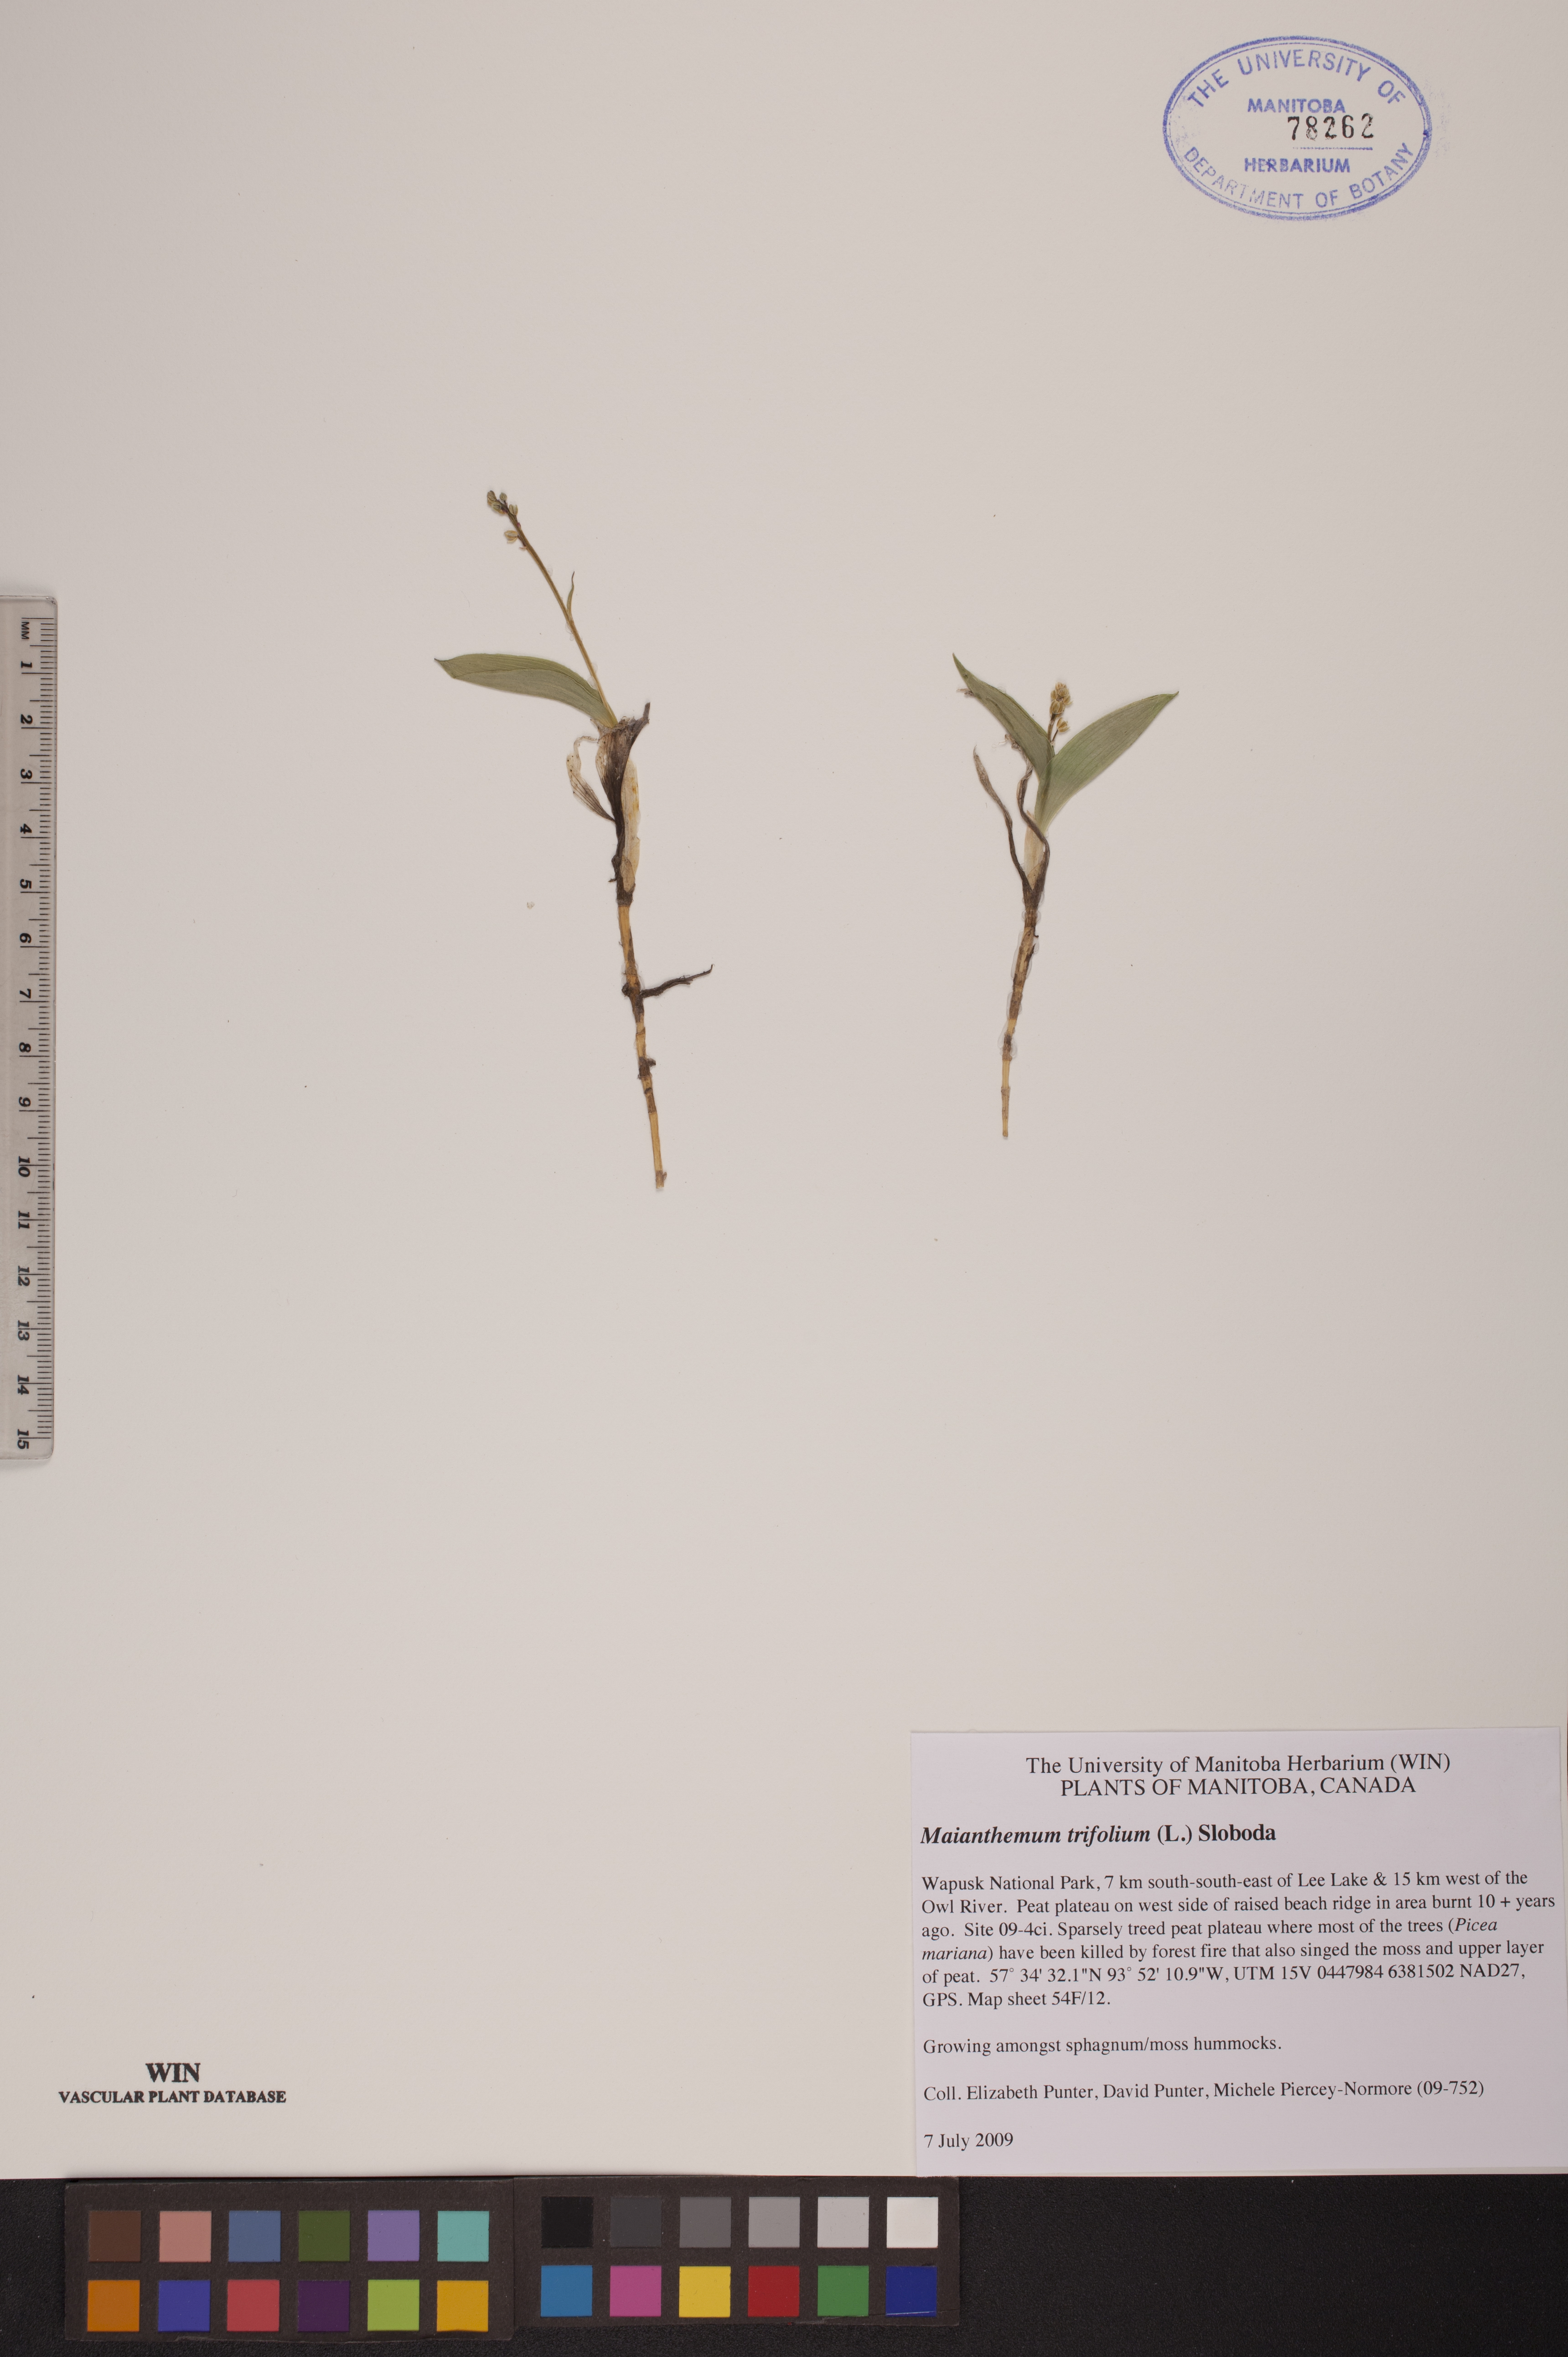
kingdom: Plantae
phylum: Tracheophyta
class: Liliopsida
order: Asparagales
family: Asparagaceae
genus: Maianthemum
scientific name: Maianthemum trifolium
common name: Swamp false solomon's seal
